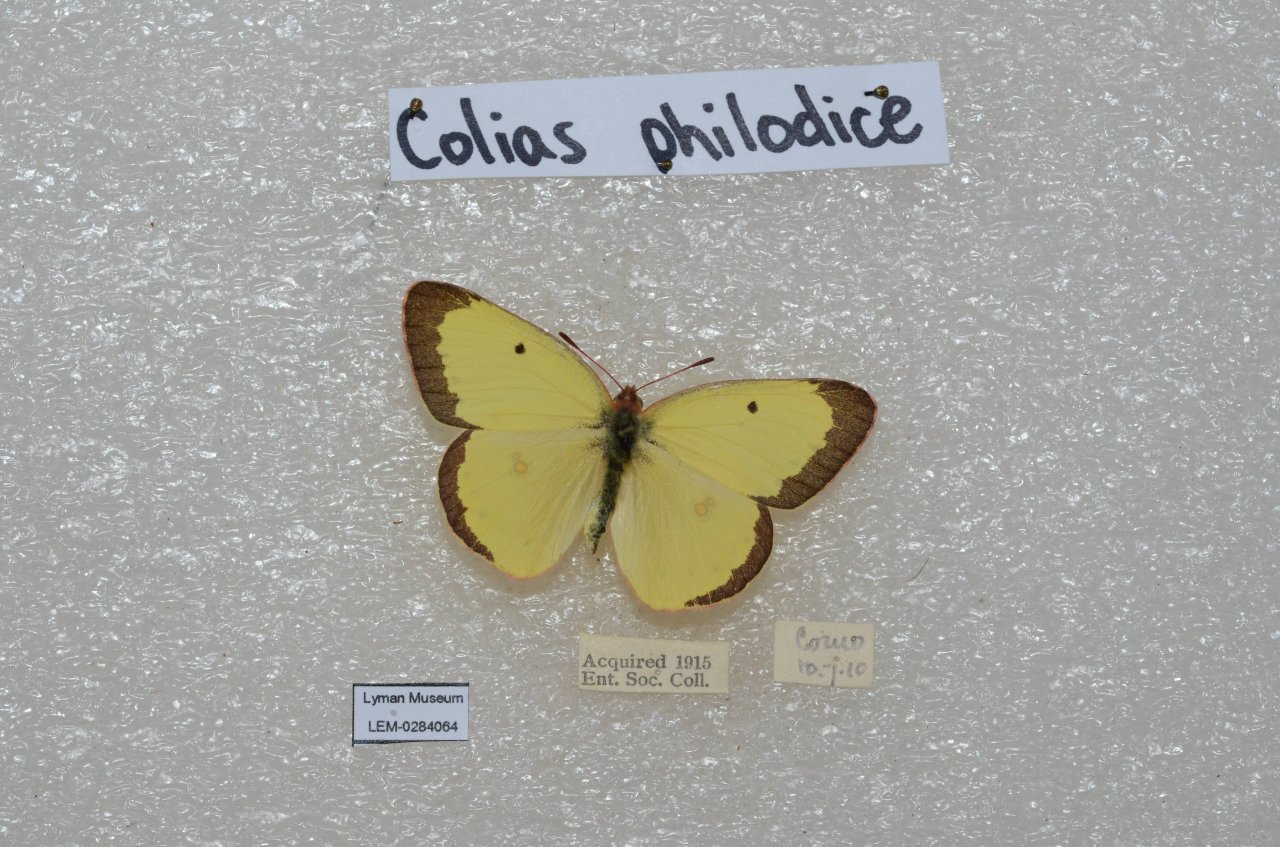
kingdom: Animalia
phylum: Arthropoda
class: Insecta
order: Lepidoptera
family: Pieridae
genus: Colias
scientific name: Colias philodice
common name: Clouded Sulphur
